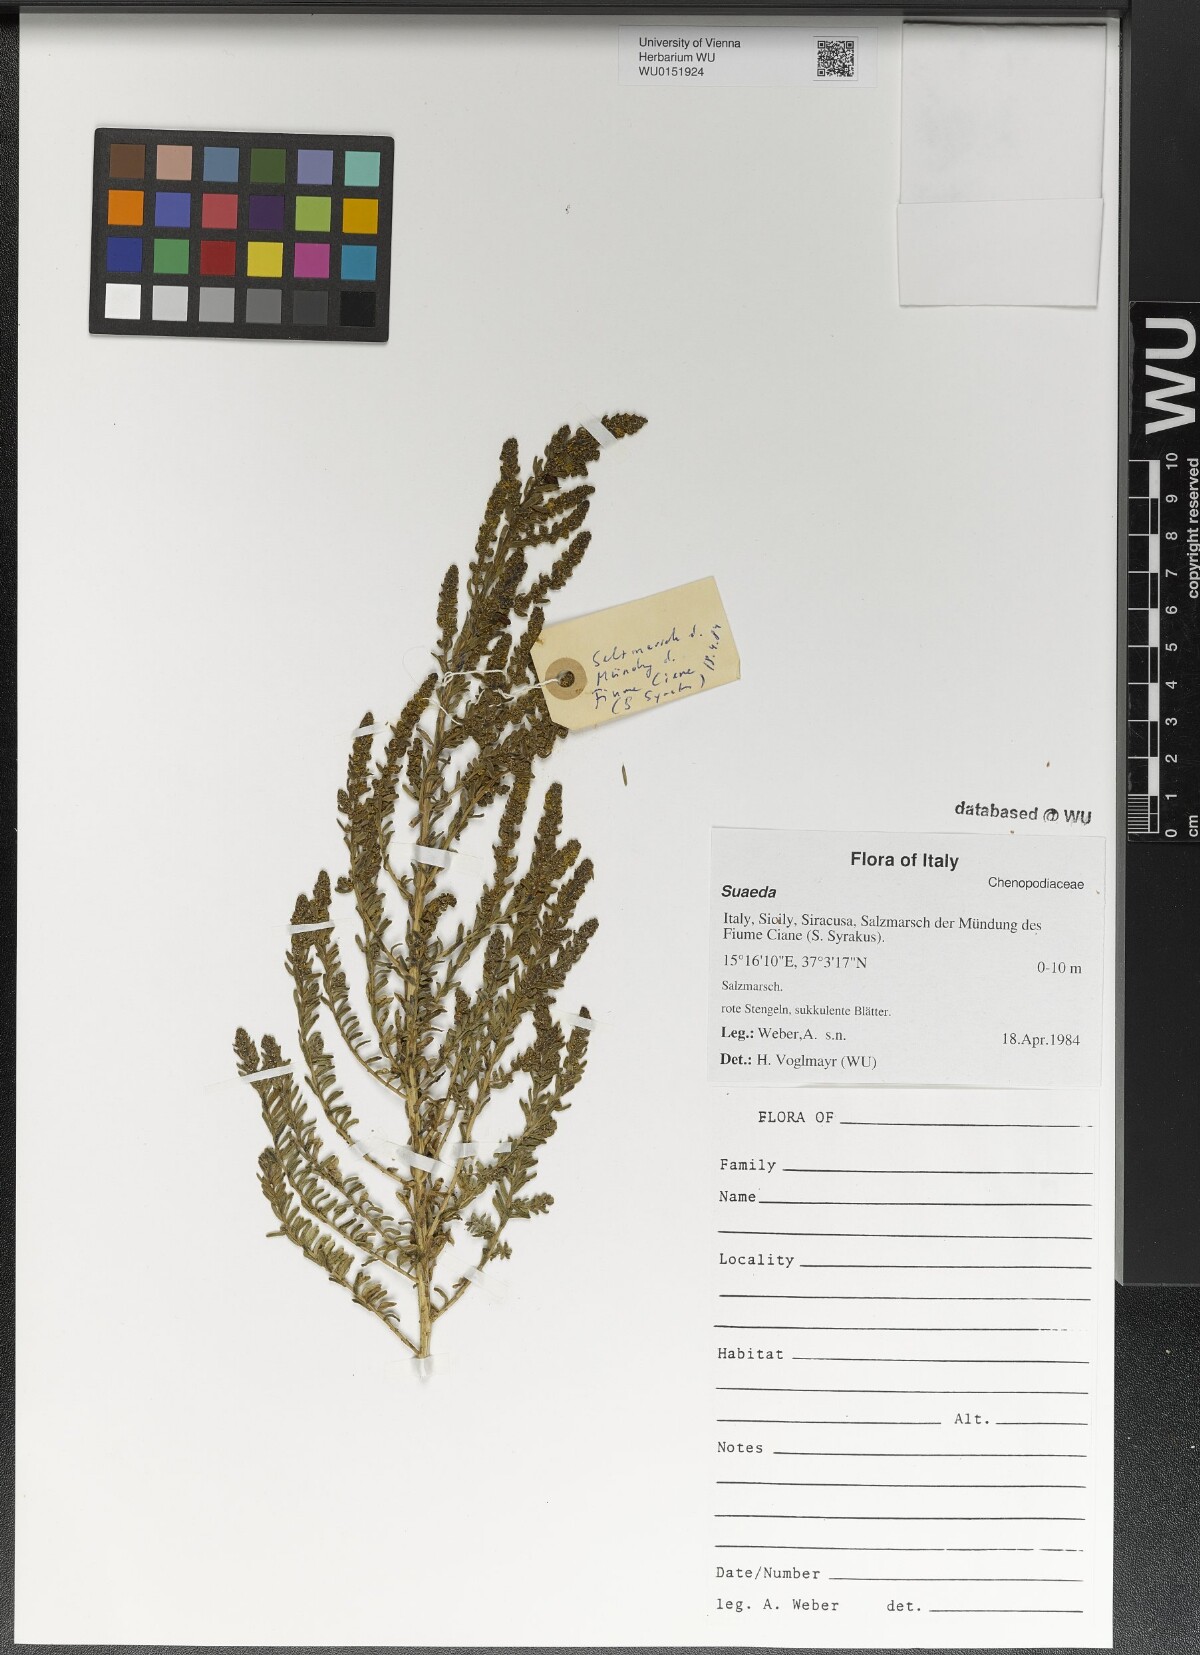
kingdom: Plantae
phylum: Tracheophyta
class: Magnoliopsida
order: Caryophyllales
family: Amaranthaceae
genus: Suaeda
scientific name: Suaeda
